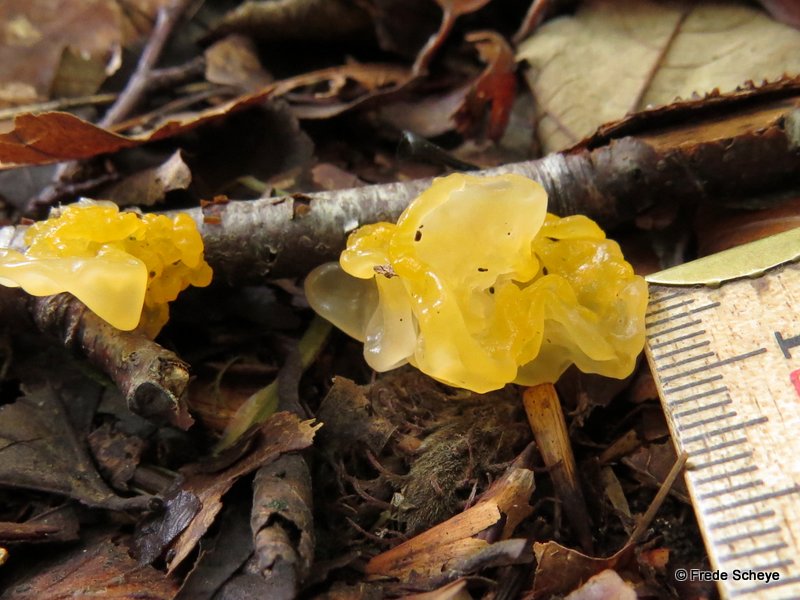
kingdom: Fungi
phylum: Basidiomycota
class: Tremellomycetes
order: Tremellales
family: Tremellaceae
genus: Tremella
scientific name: Tremella mesenterica
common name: gul bævresvamp
